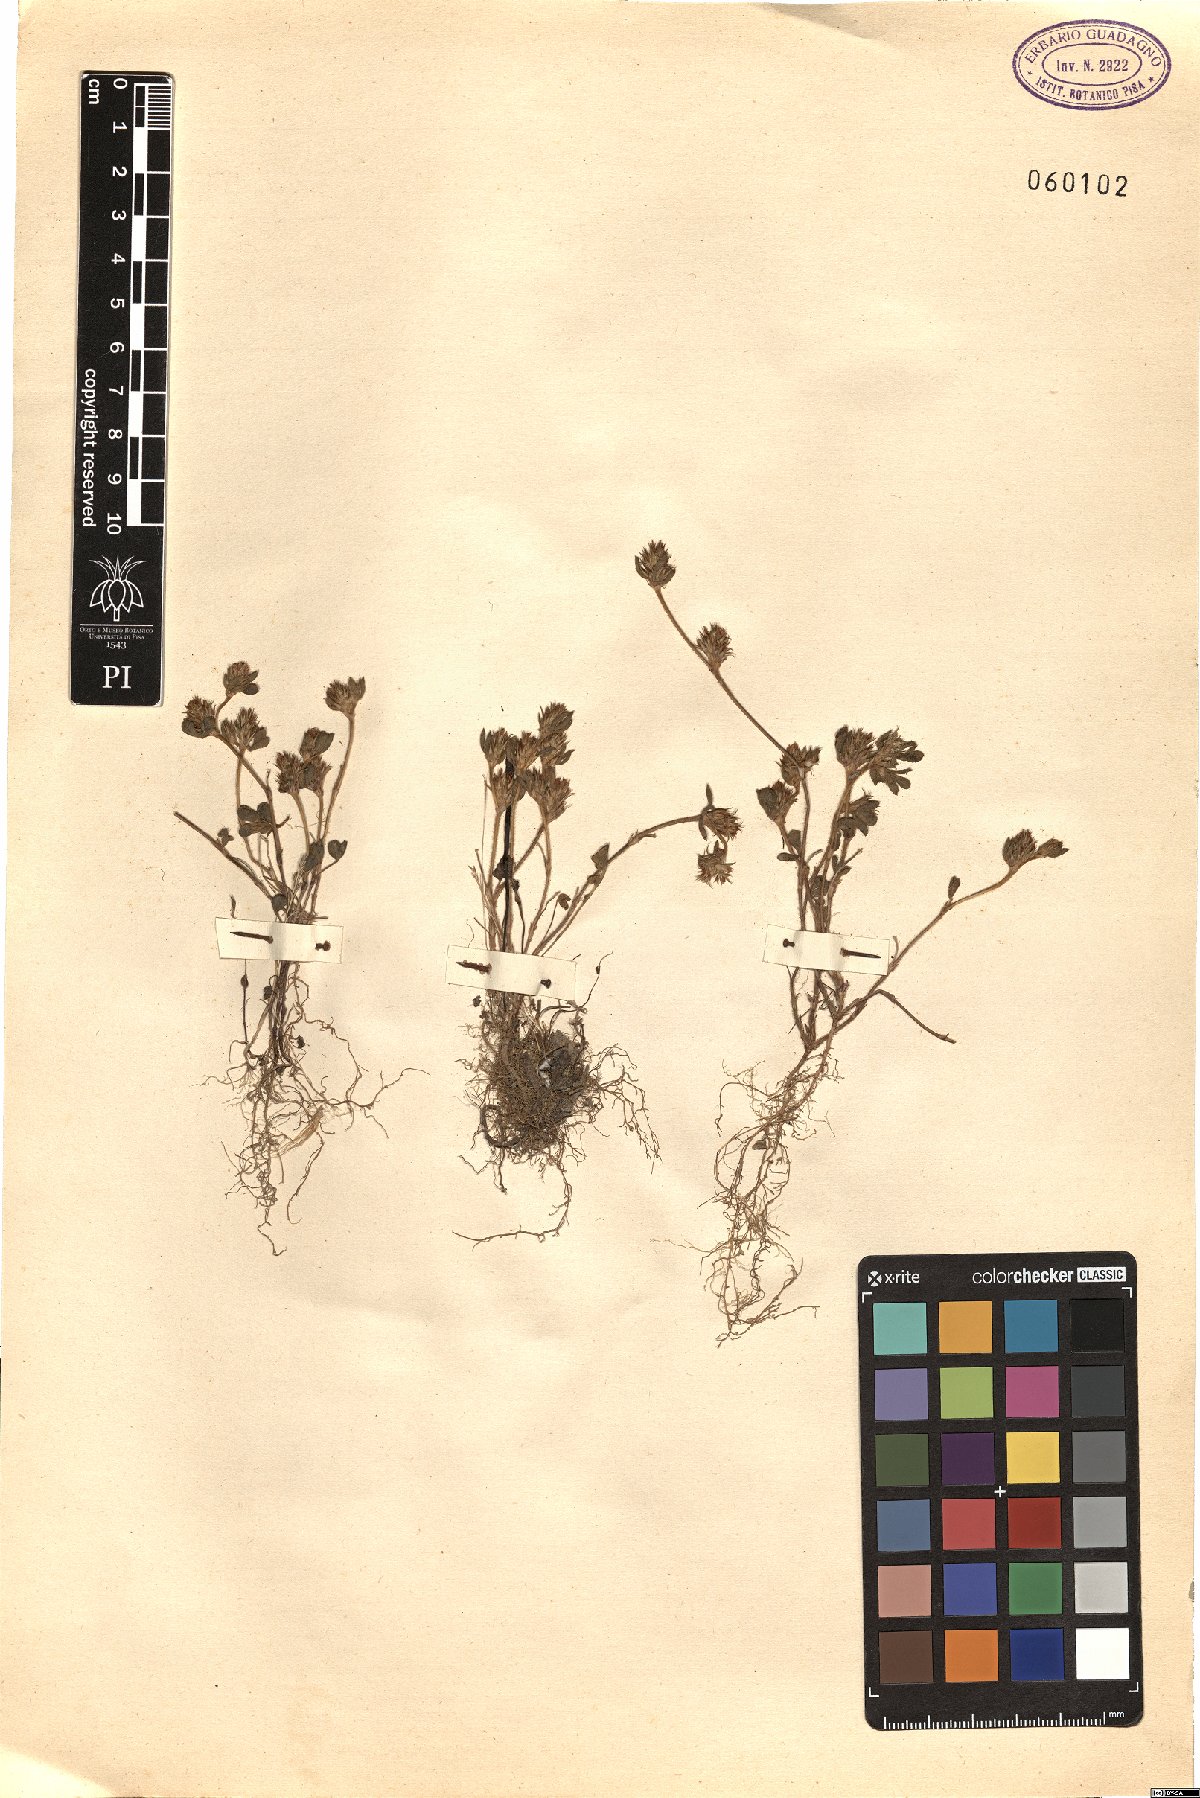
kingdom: Plantae
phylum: Tracheophyta
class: Magnoliopsida
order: Fabales
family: Fabaceae
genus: Trifolium
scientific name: Trifolium scabrum
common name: Rough clover
